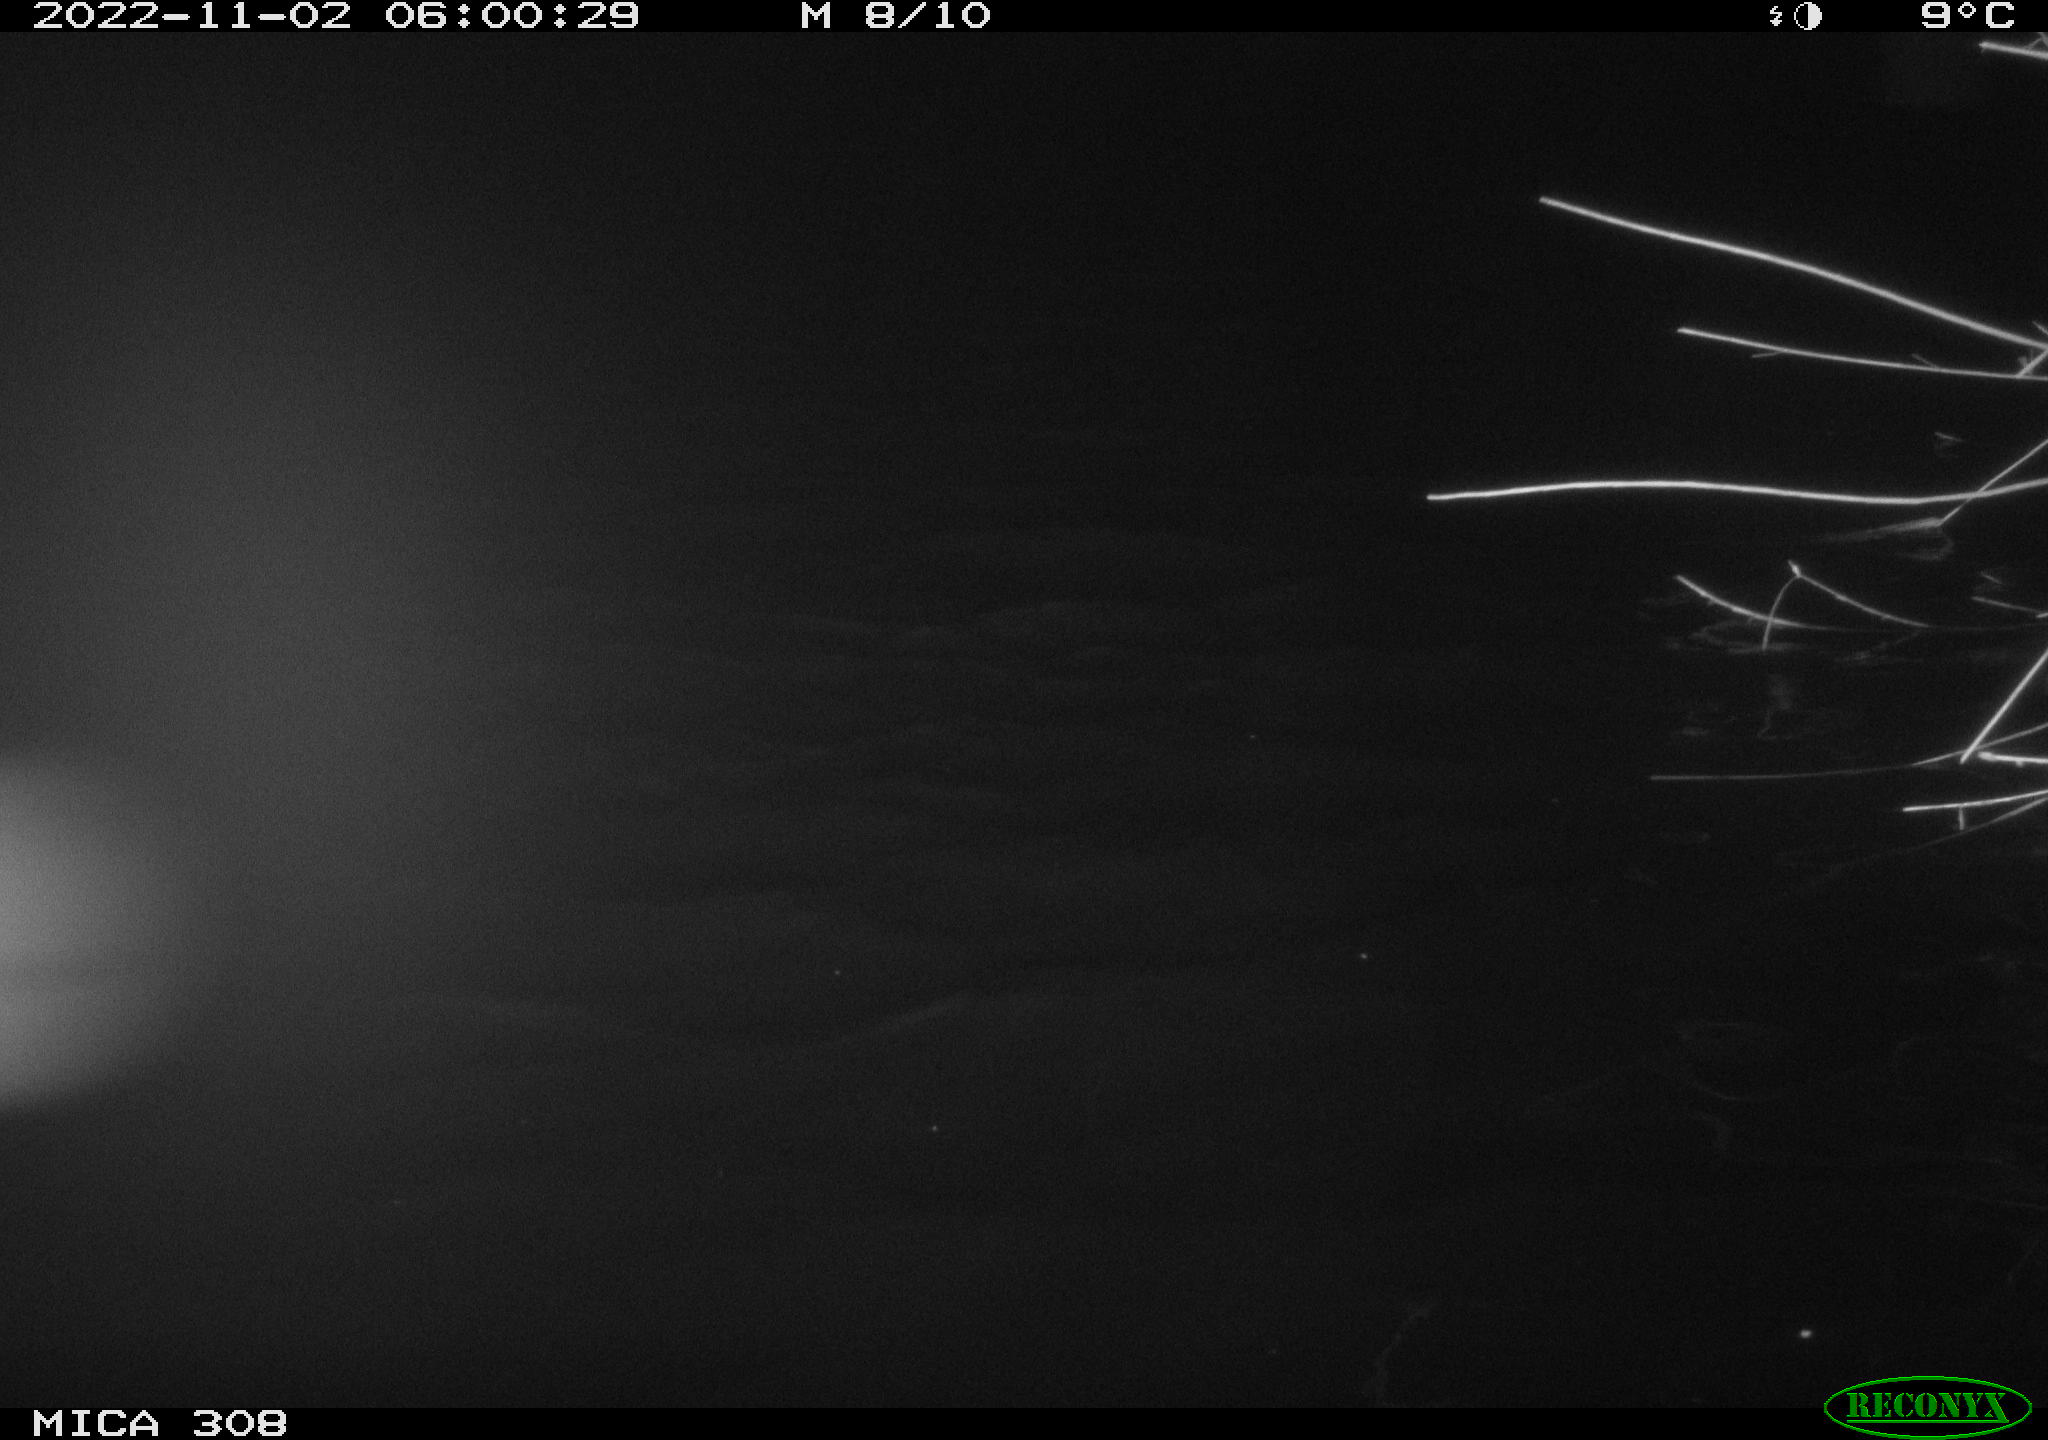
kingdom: Animalia
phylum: Chordata
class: Mammalia
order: Rodentia
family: Cricetidae
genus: Ondatra
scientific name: Ondatra zibethicus
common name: Muskrat
